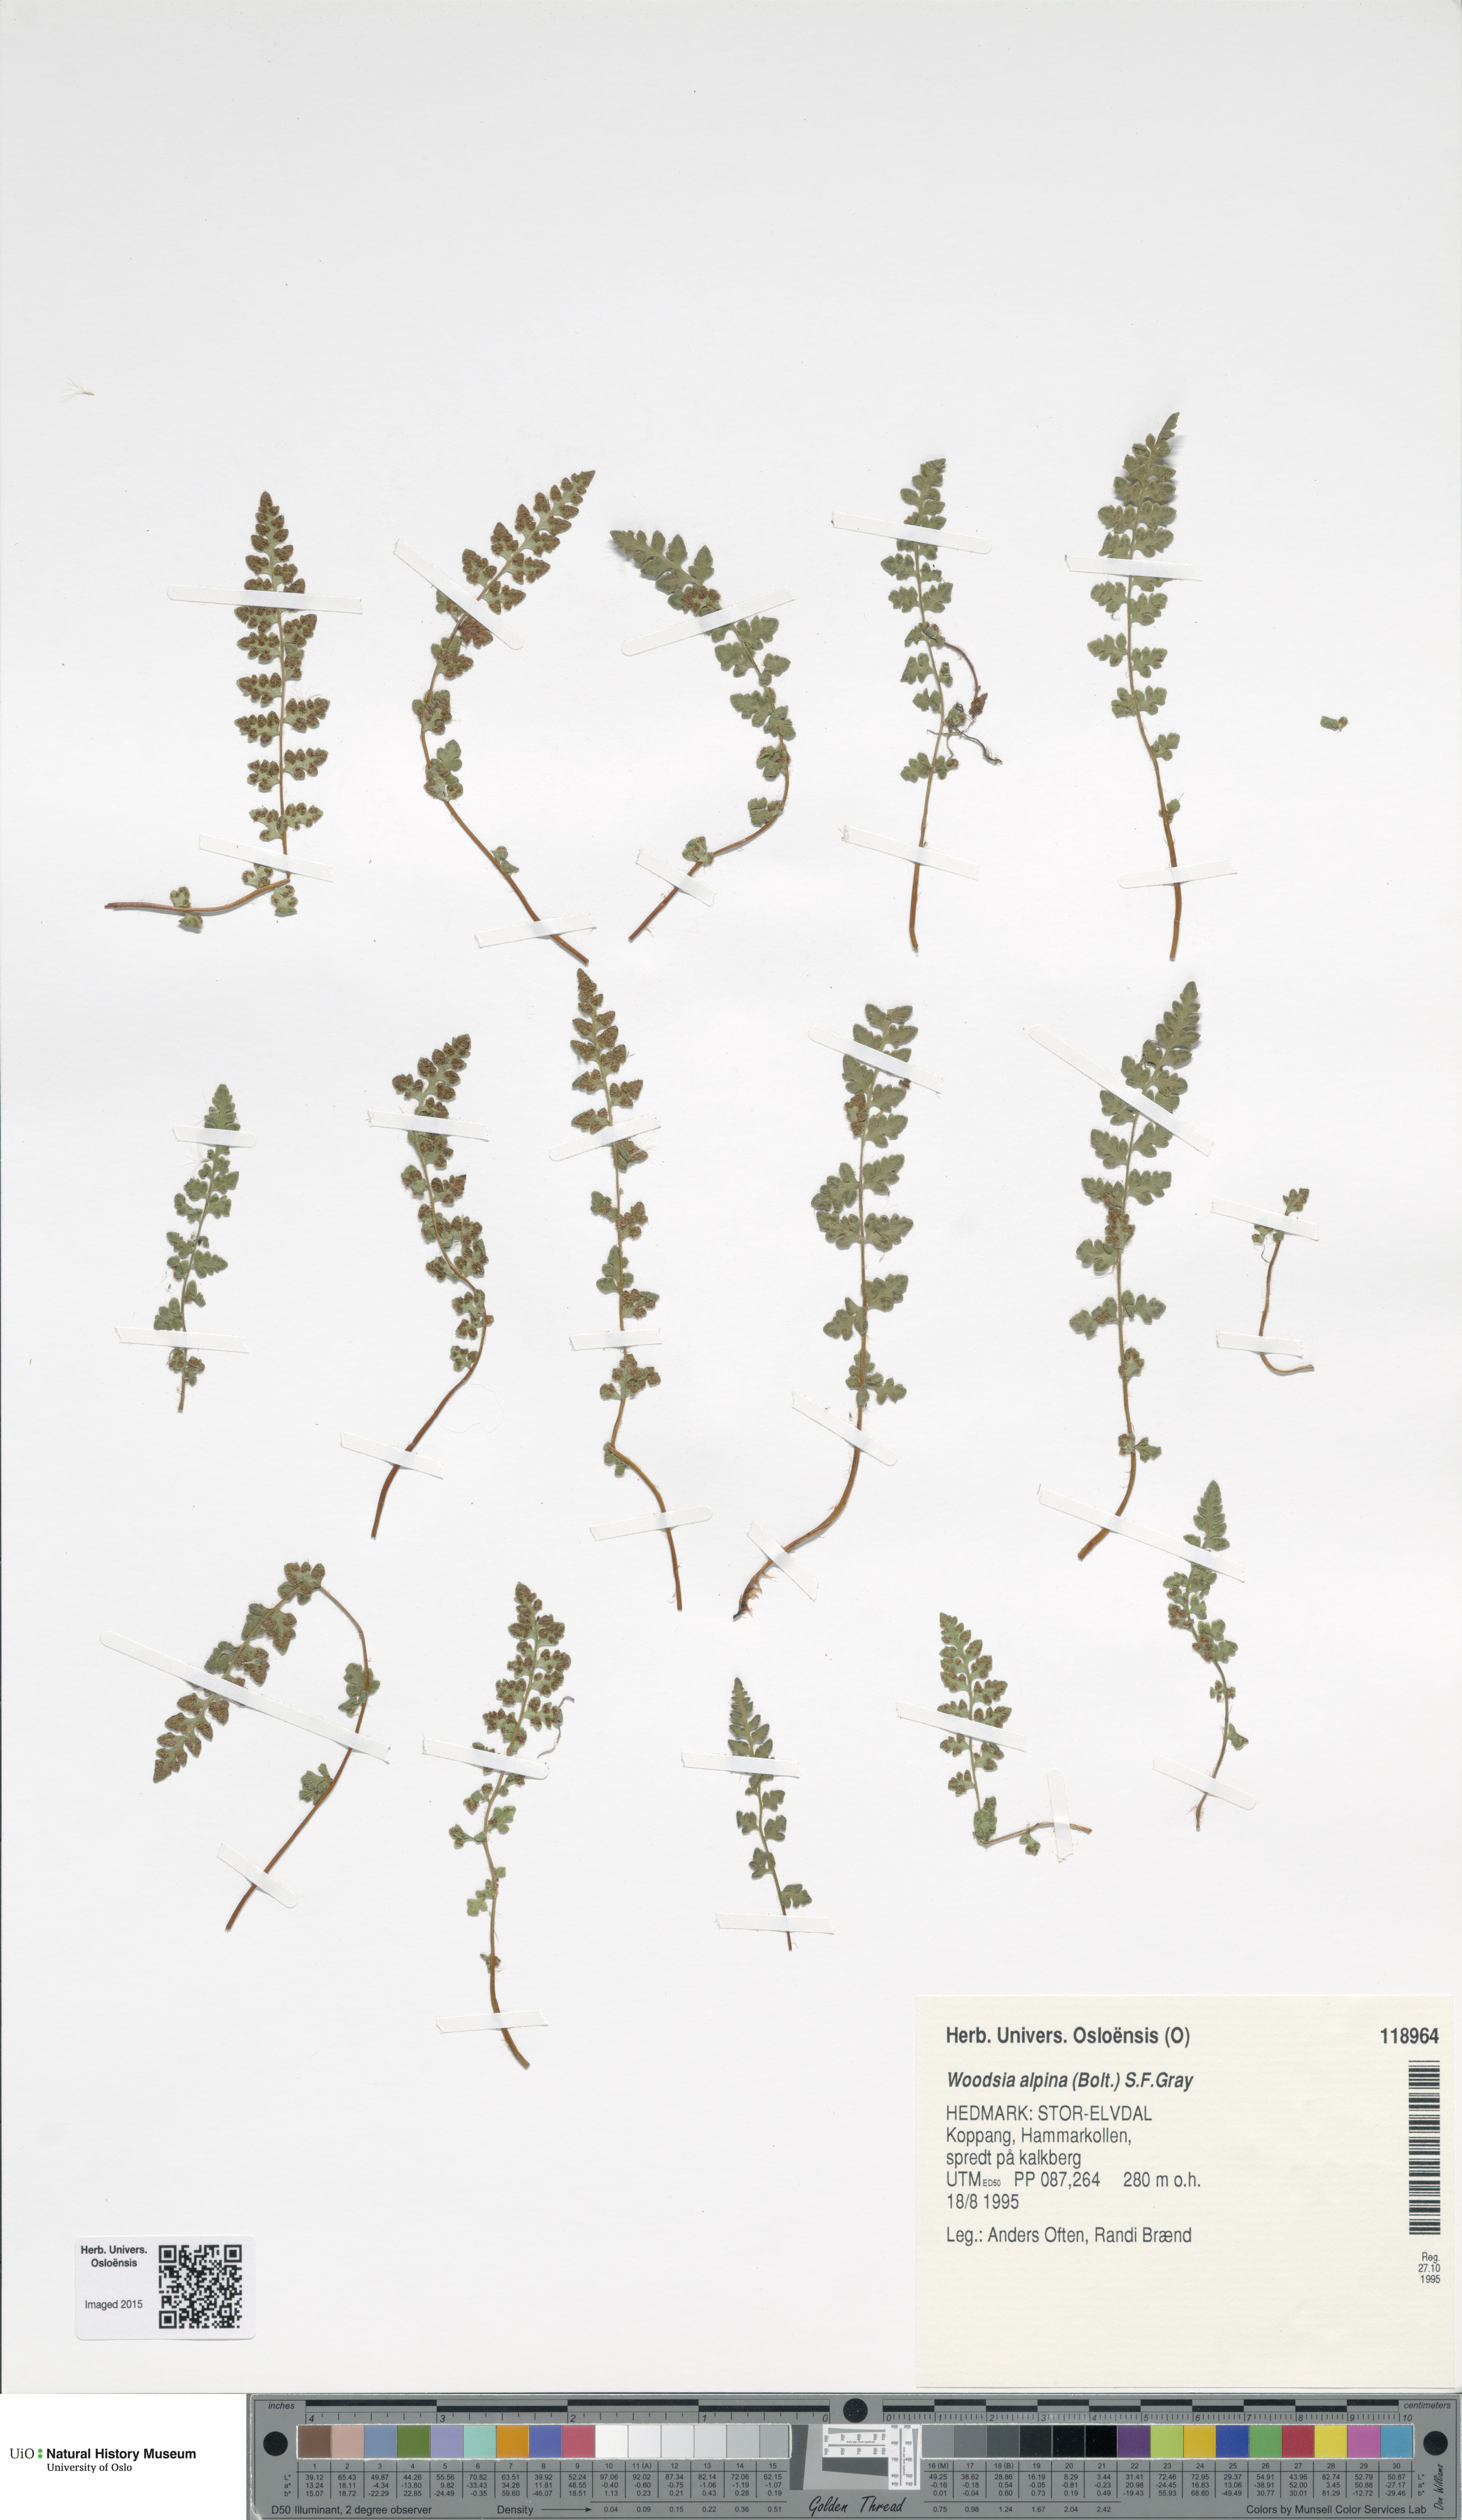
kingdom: Plantae
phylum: Tracheophyta
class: Polypodiopsida
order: Polypodiales
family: Woodsiaceae
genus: Woodsia
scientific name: Woodsia alpina
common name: Alpine woodsia
